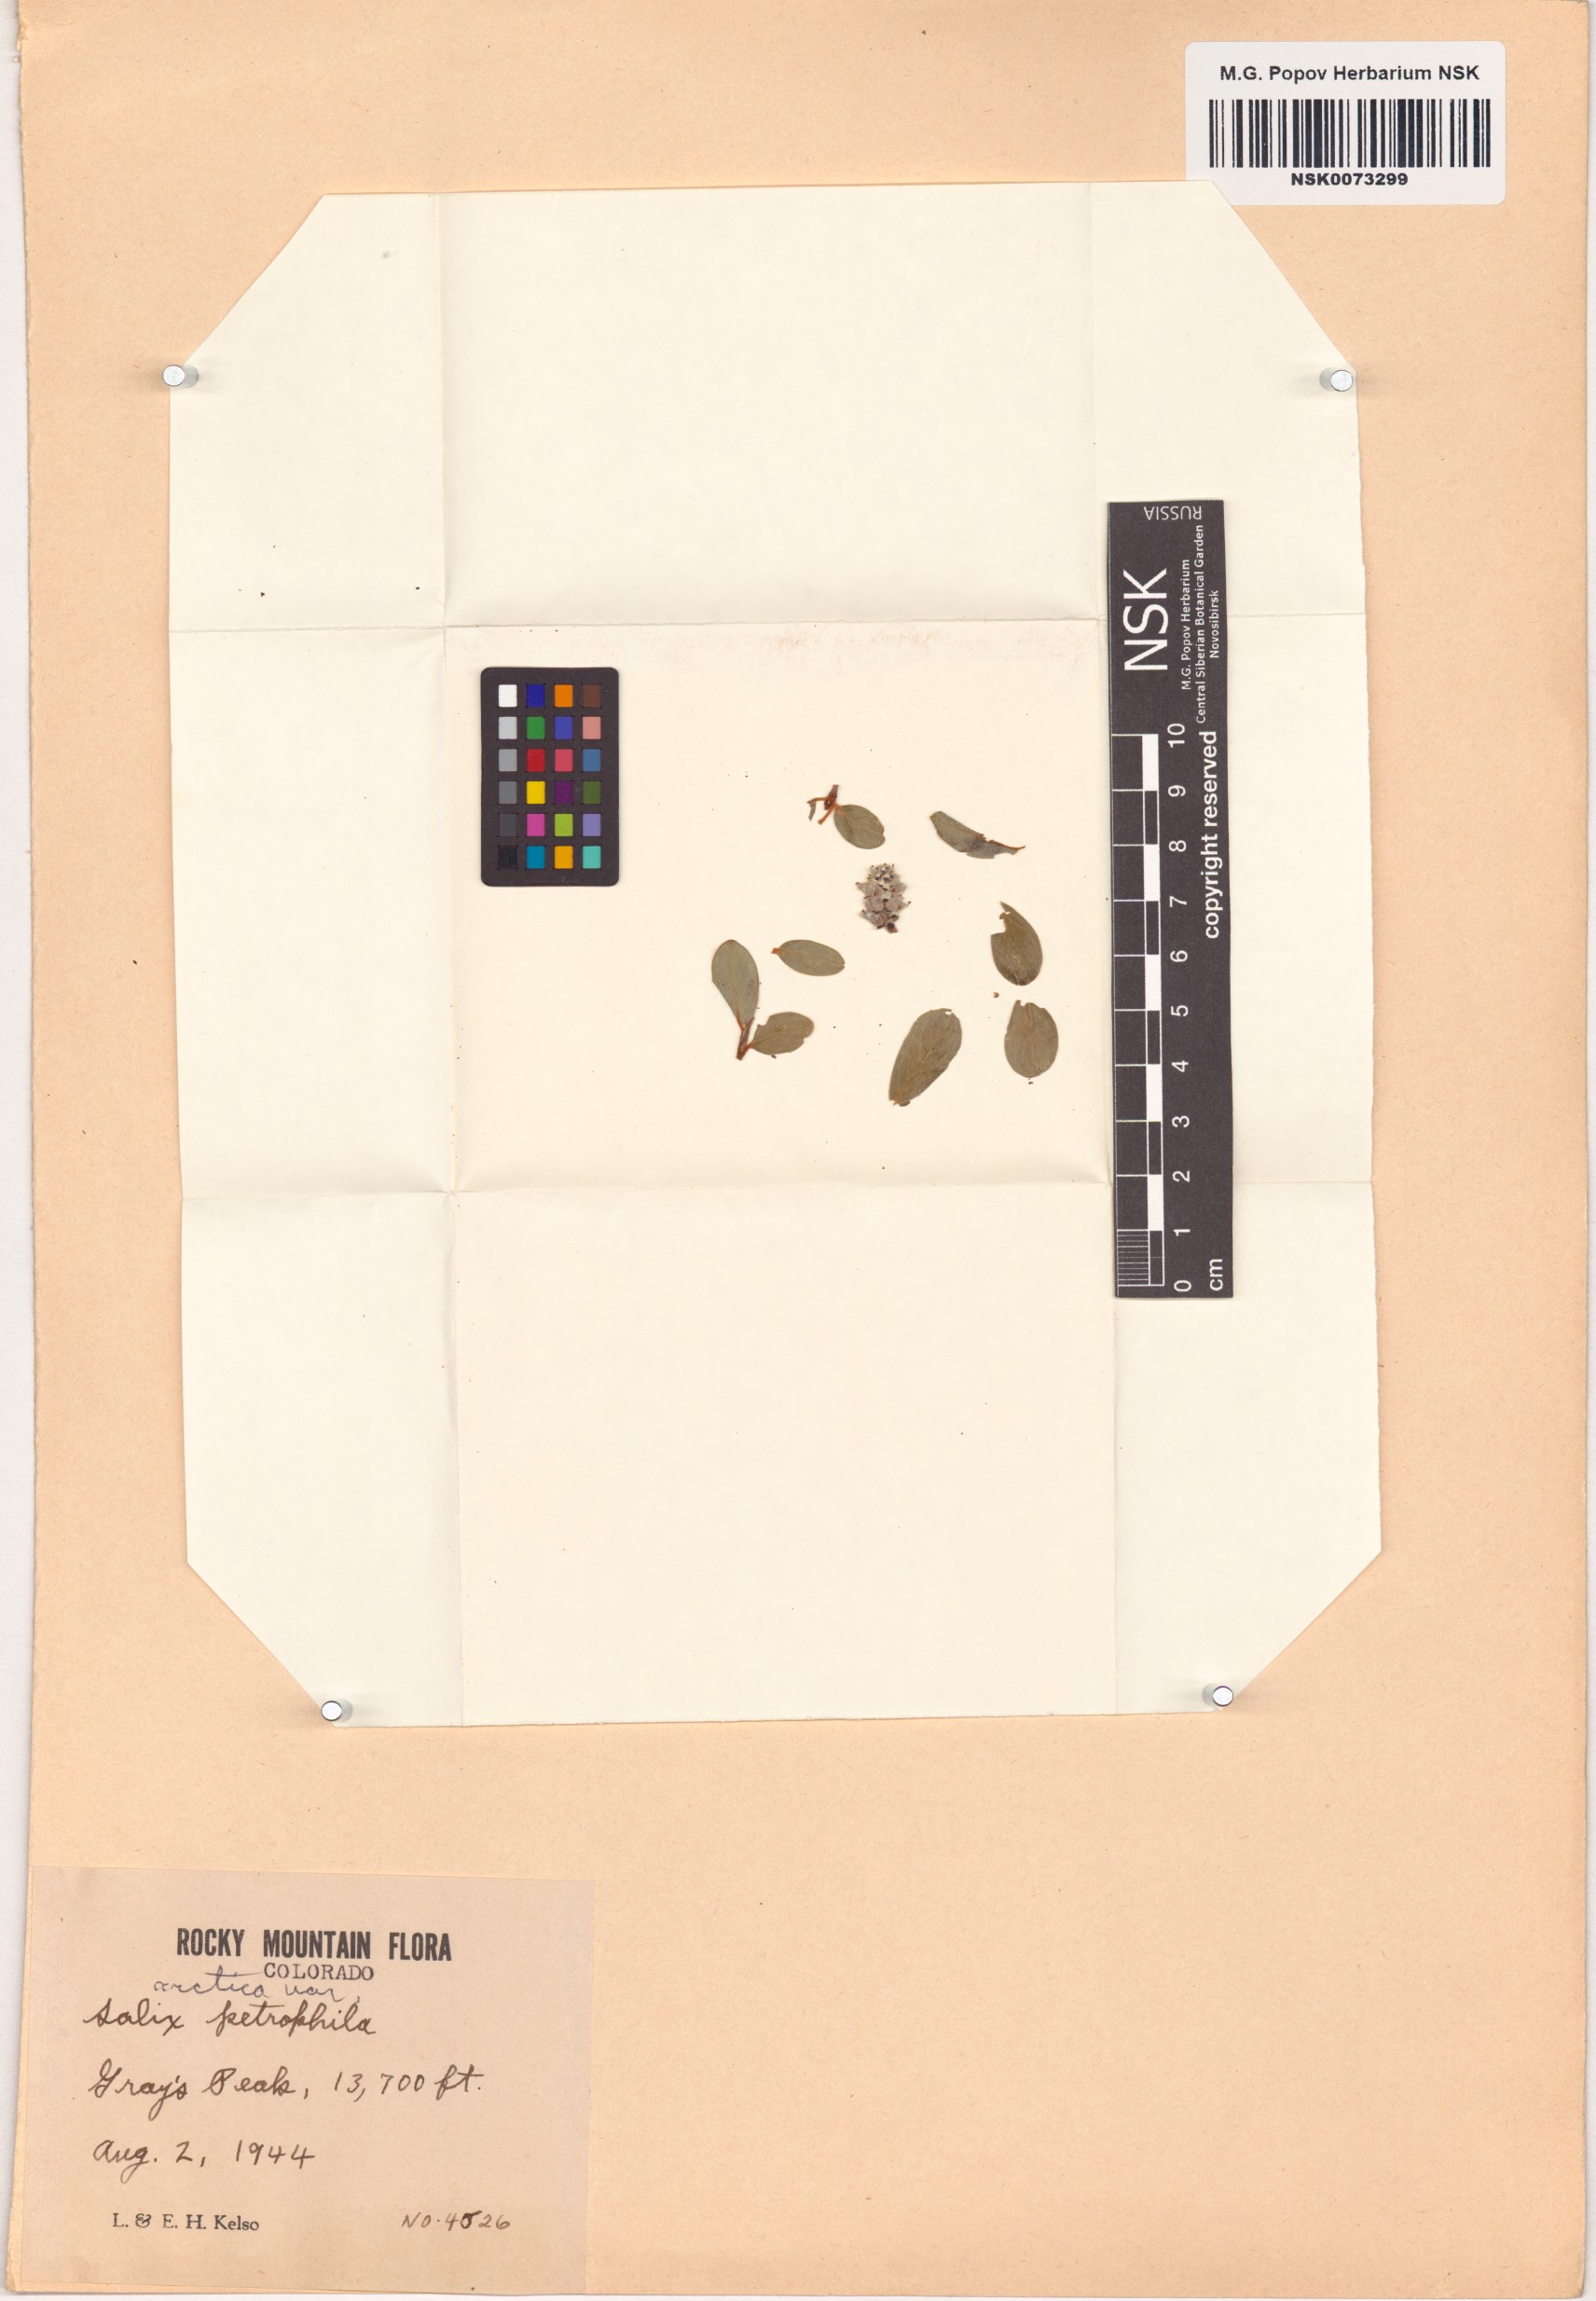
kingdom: Plantae
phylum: Tracheophyta
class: Magnoliopsida
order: Malpighiales
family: Salicaceae
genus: Salix
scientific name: Salix petrophila
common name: Rocky mountain willow
